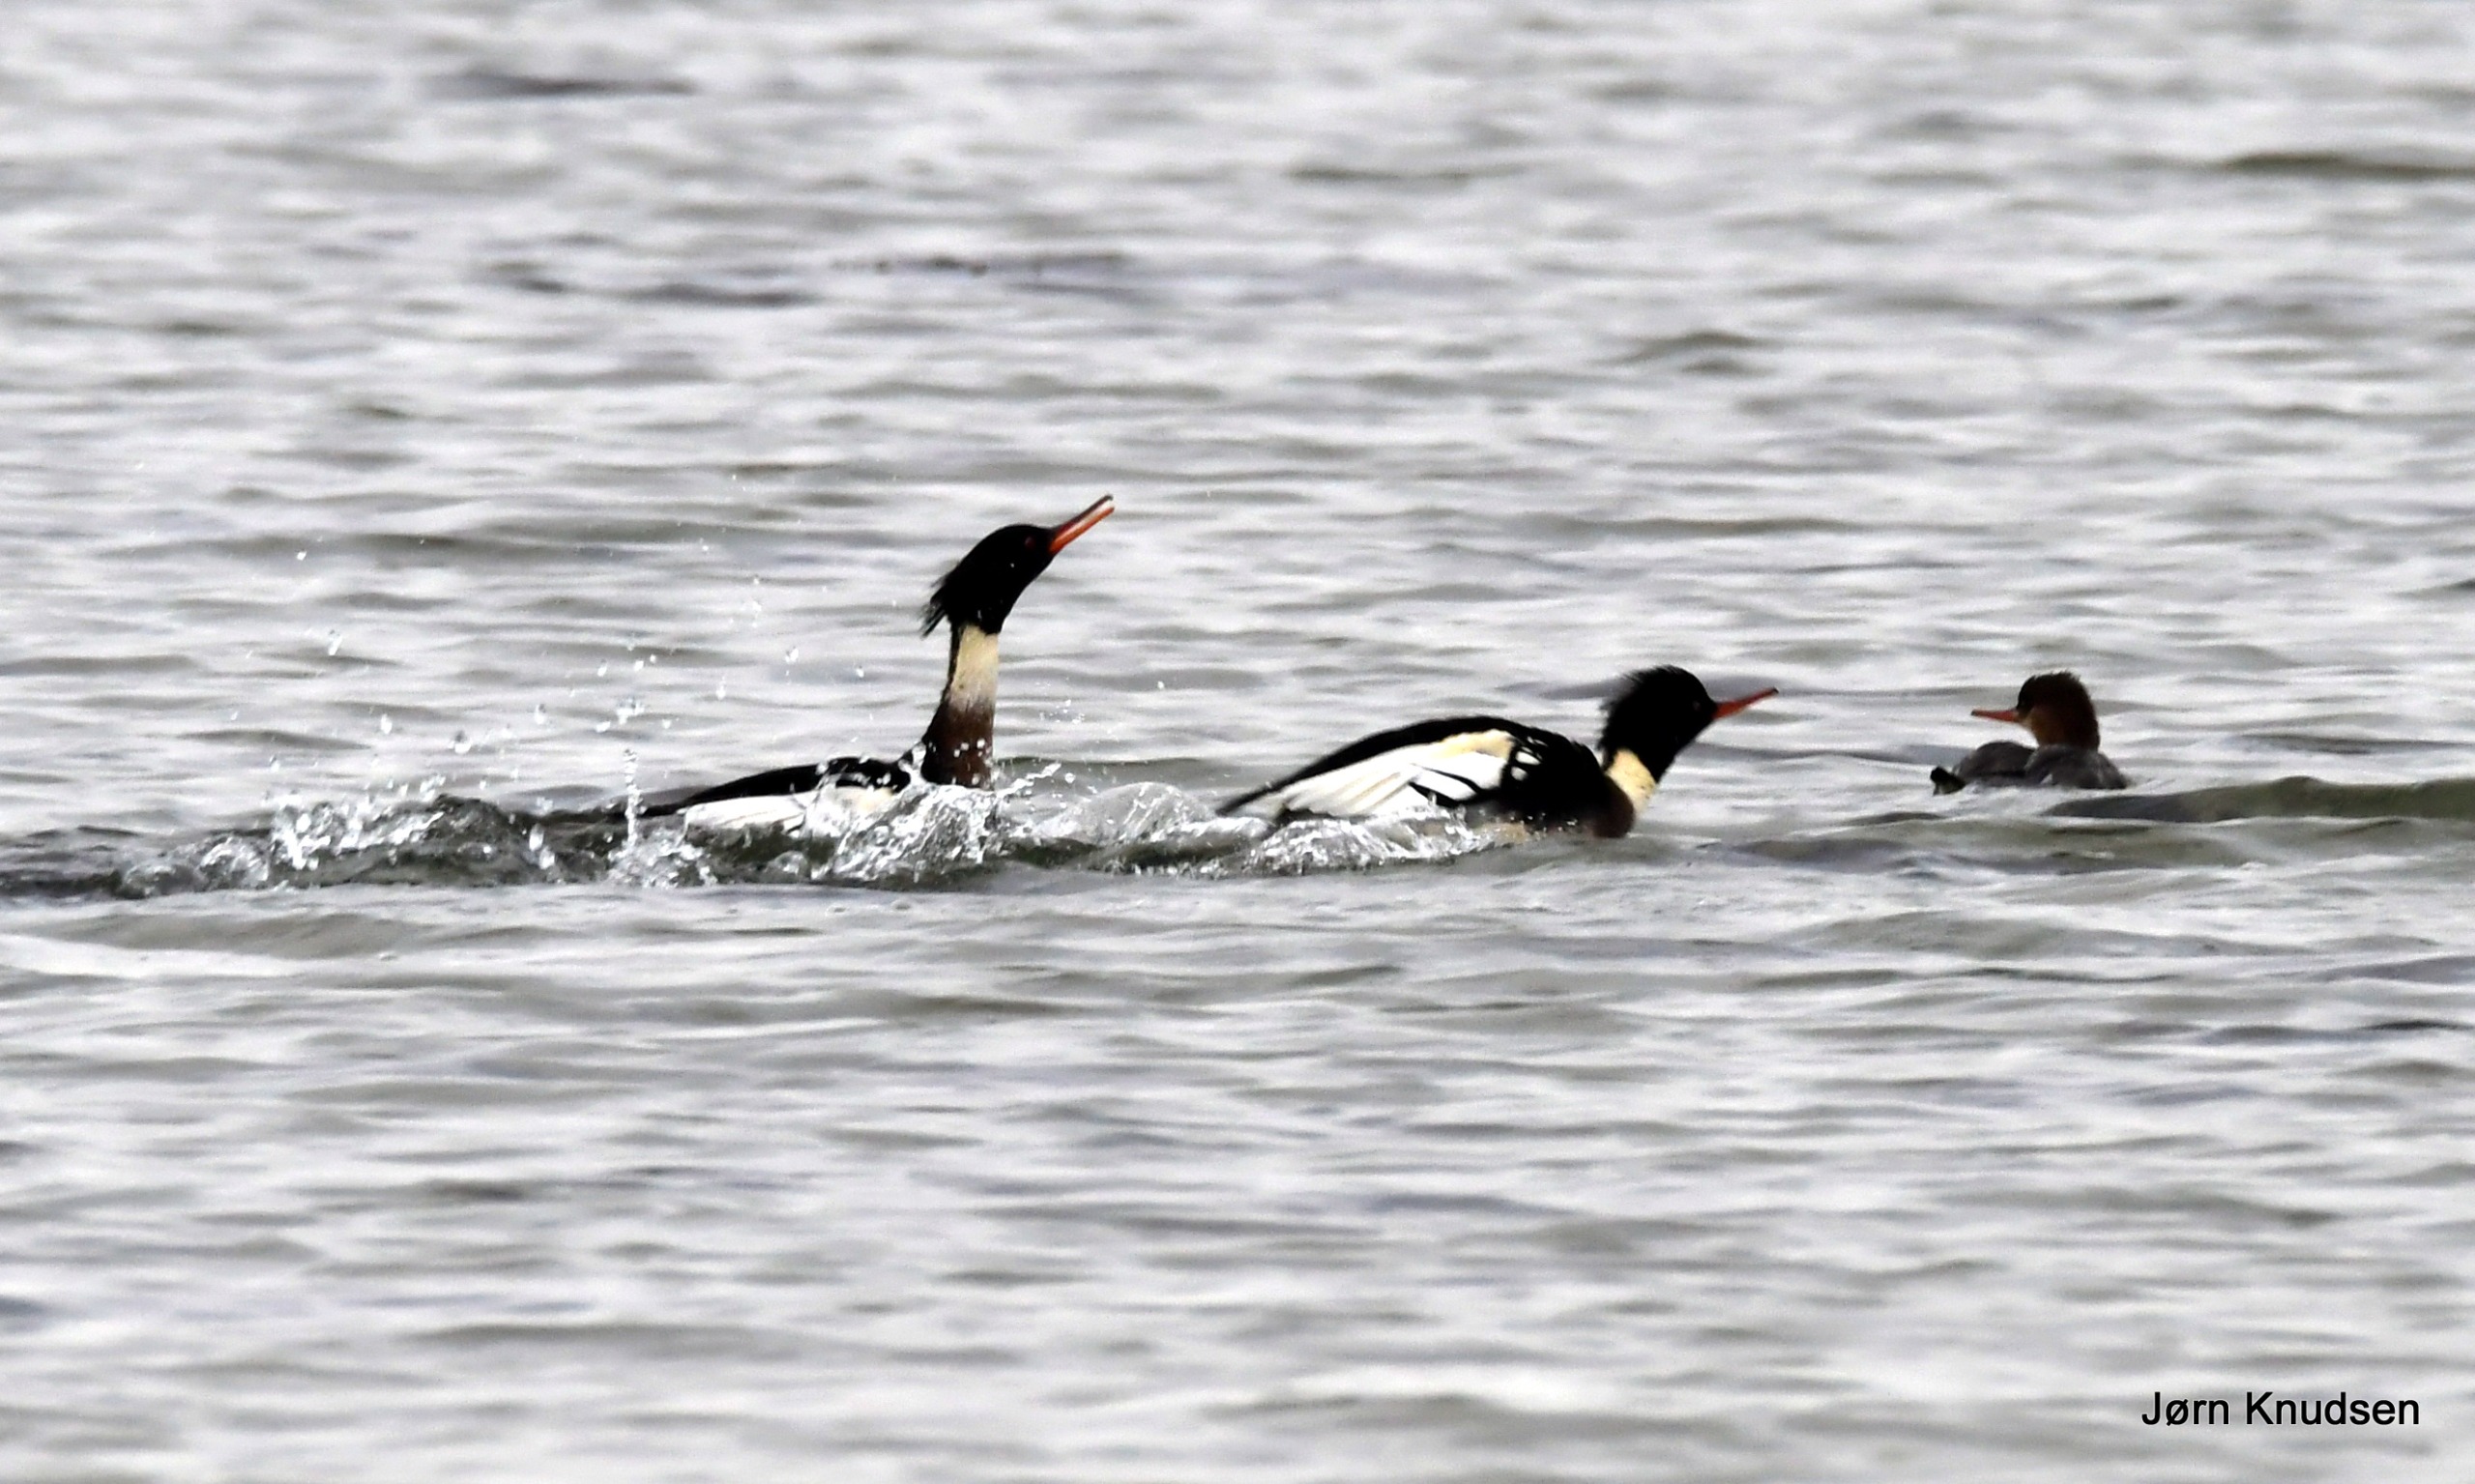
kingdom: Animalia
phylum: Chordata
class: Aves
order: Anseriformes
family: Anatidae
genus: Mergus
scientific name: Mergus serrator
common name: Toppet skallesluger
